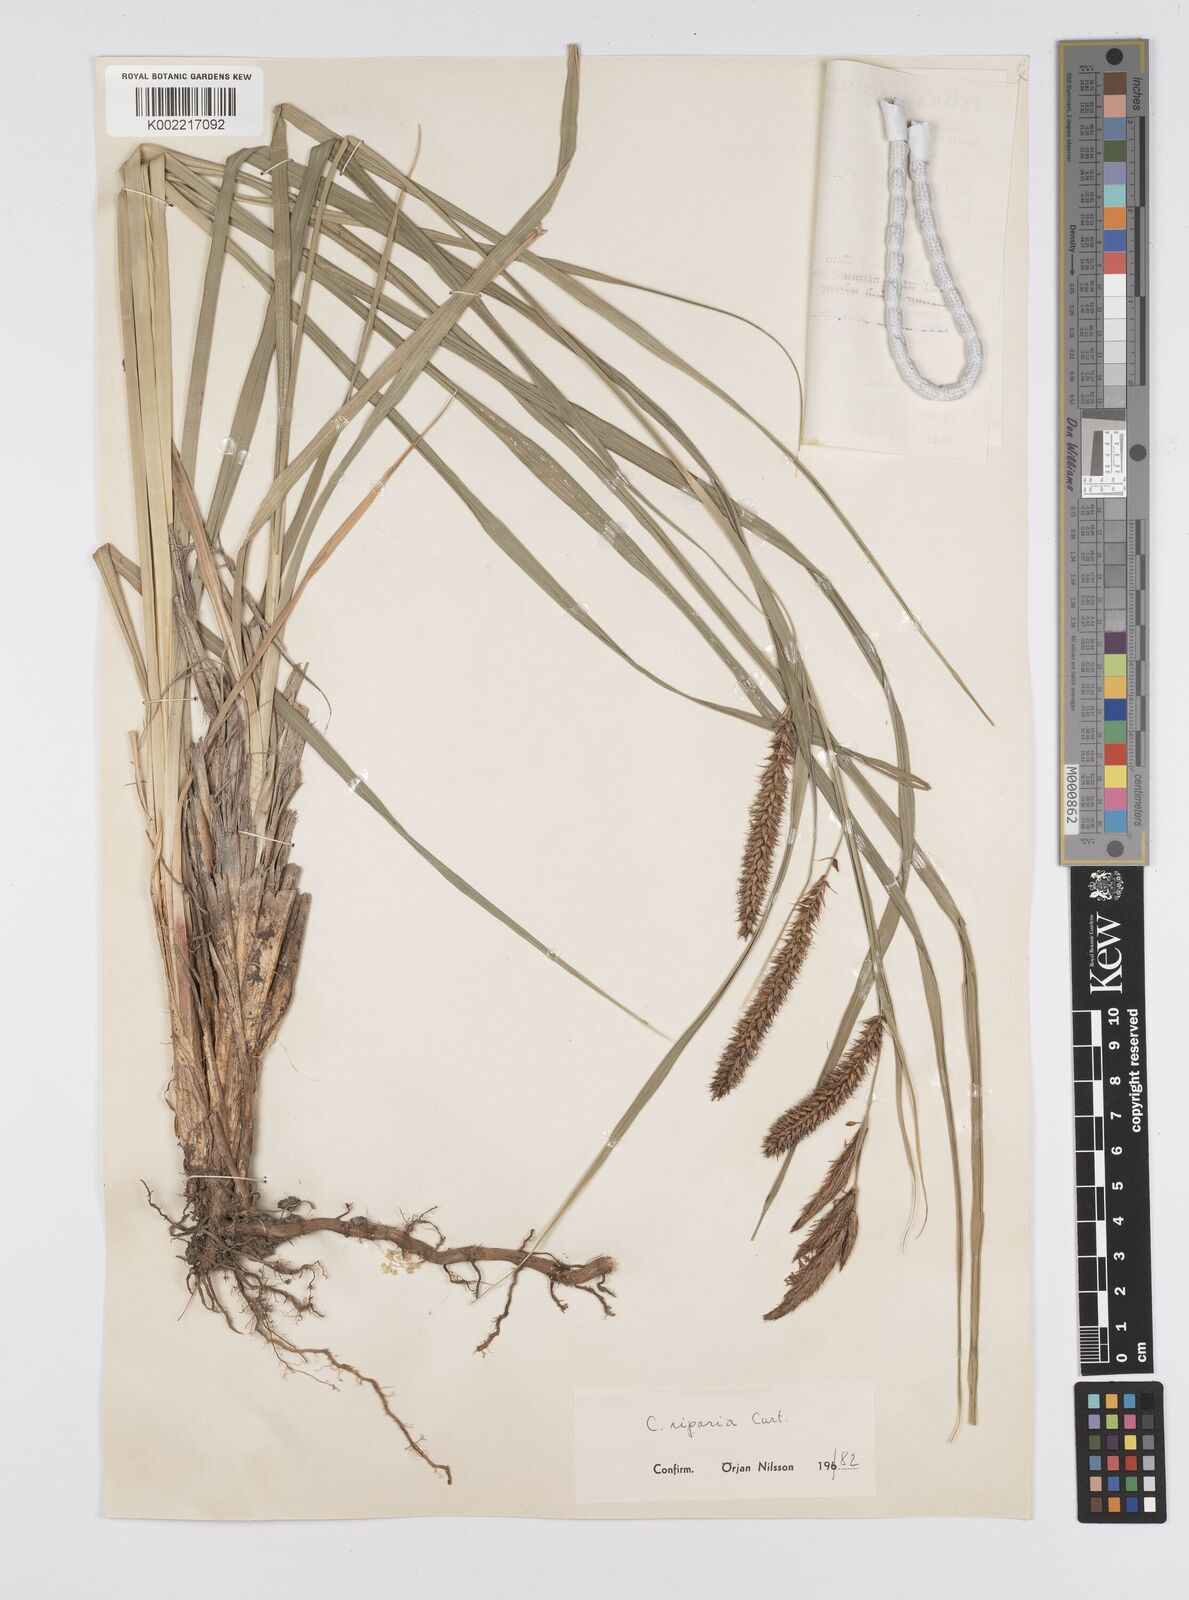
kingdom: Plantae
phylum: Tracheophyta
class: Liliopsida
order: Poales
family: Cyperaceae
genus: Carex
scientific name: Carex riparia
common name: Greater pond-sedge
